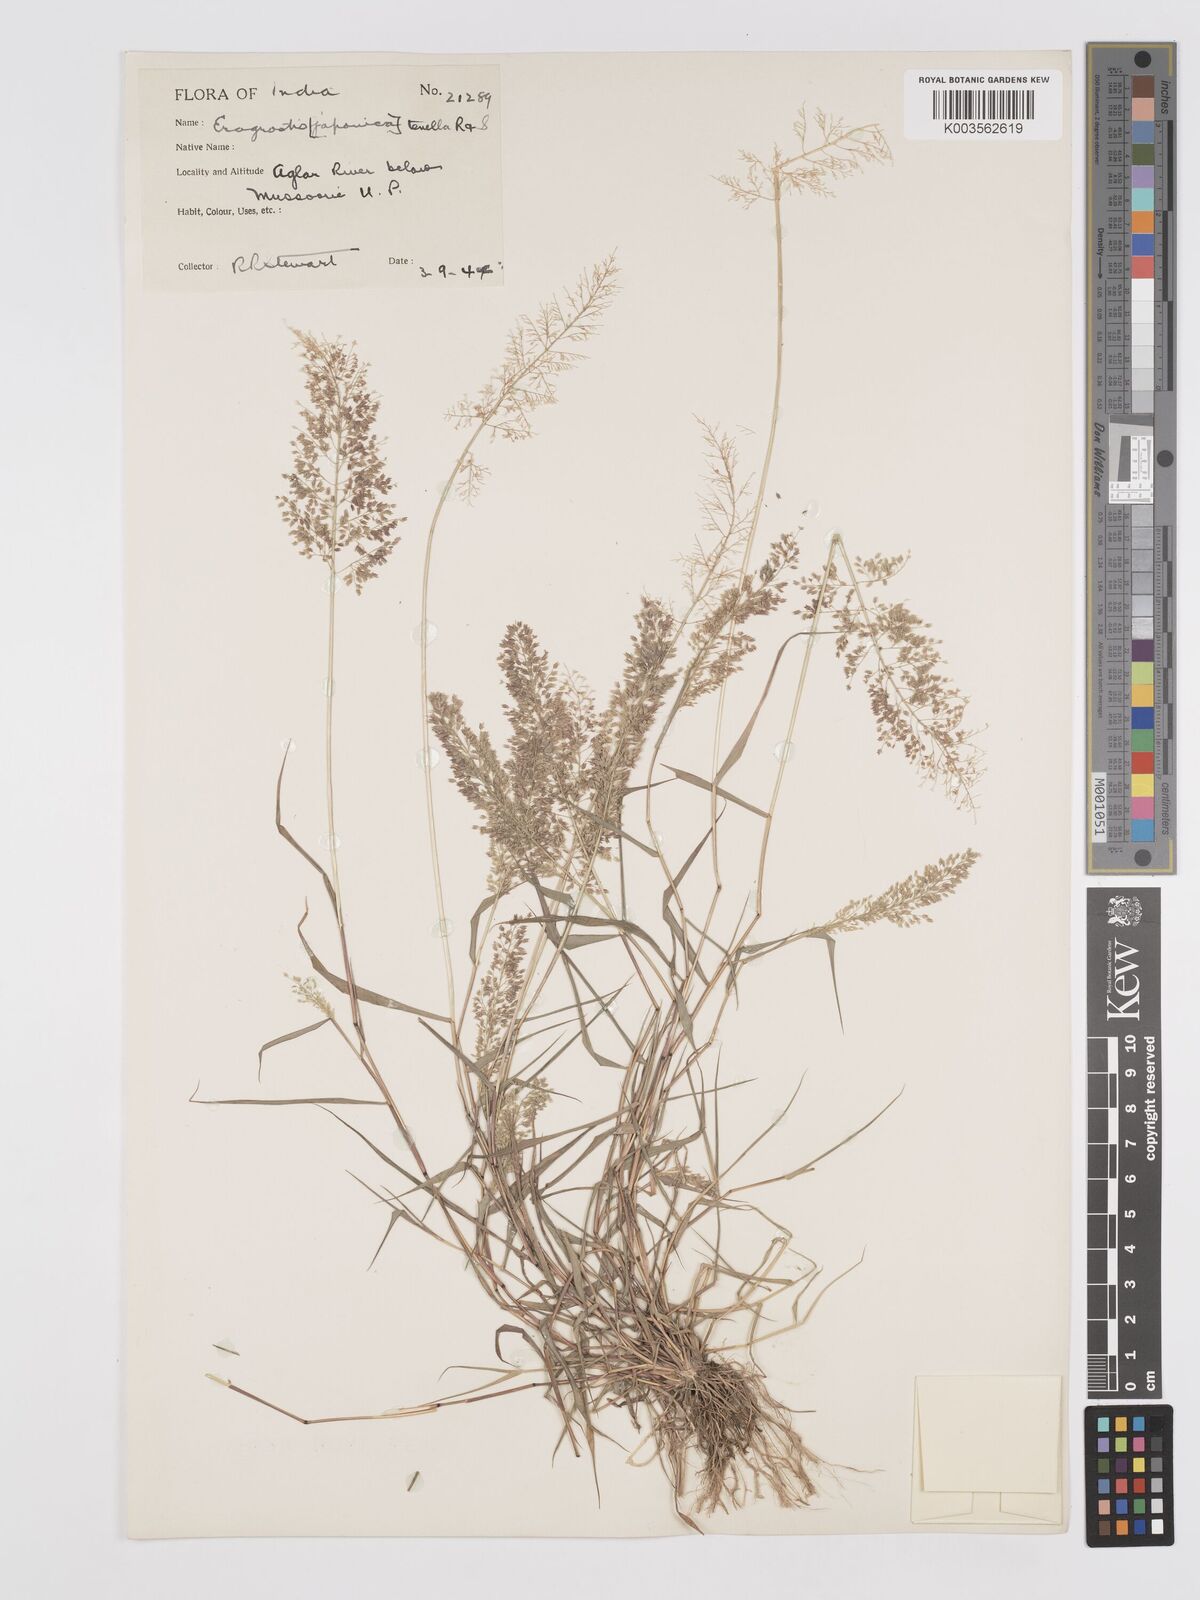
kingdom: Plantae
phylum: Tracheophyta
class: Liliopsida
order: Poales
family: Poaceae
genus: Eragrostis
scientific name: Eragrostis tenella
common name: Japanese lovegrass
